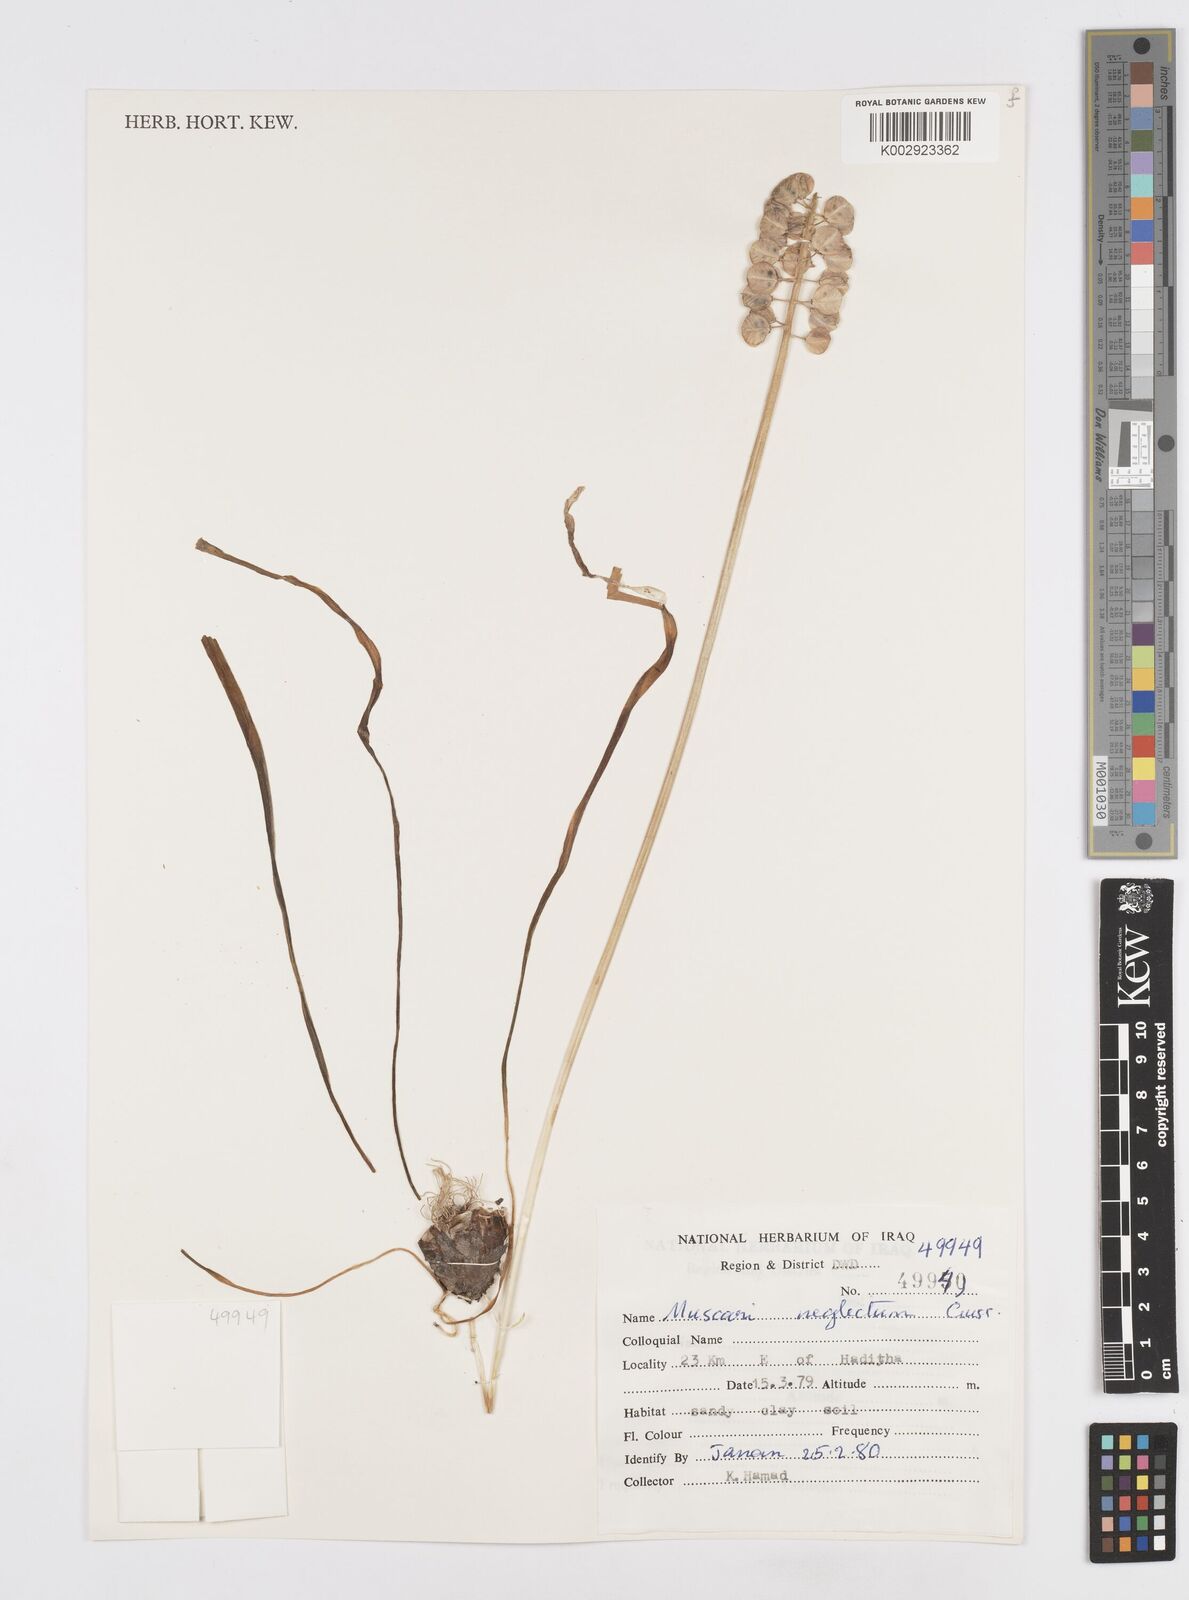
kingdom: Plantae
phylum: Tracheophyta
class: Liliopsida
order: Asparagales
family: Asparagaceae
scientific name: Asparagaceae
